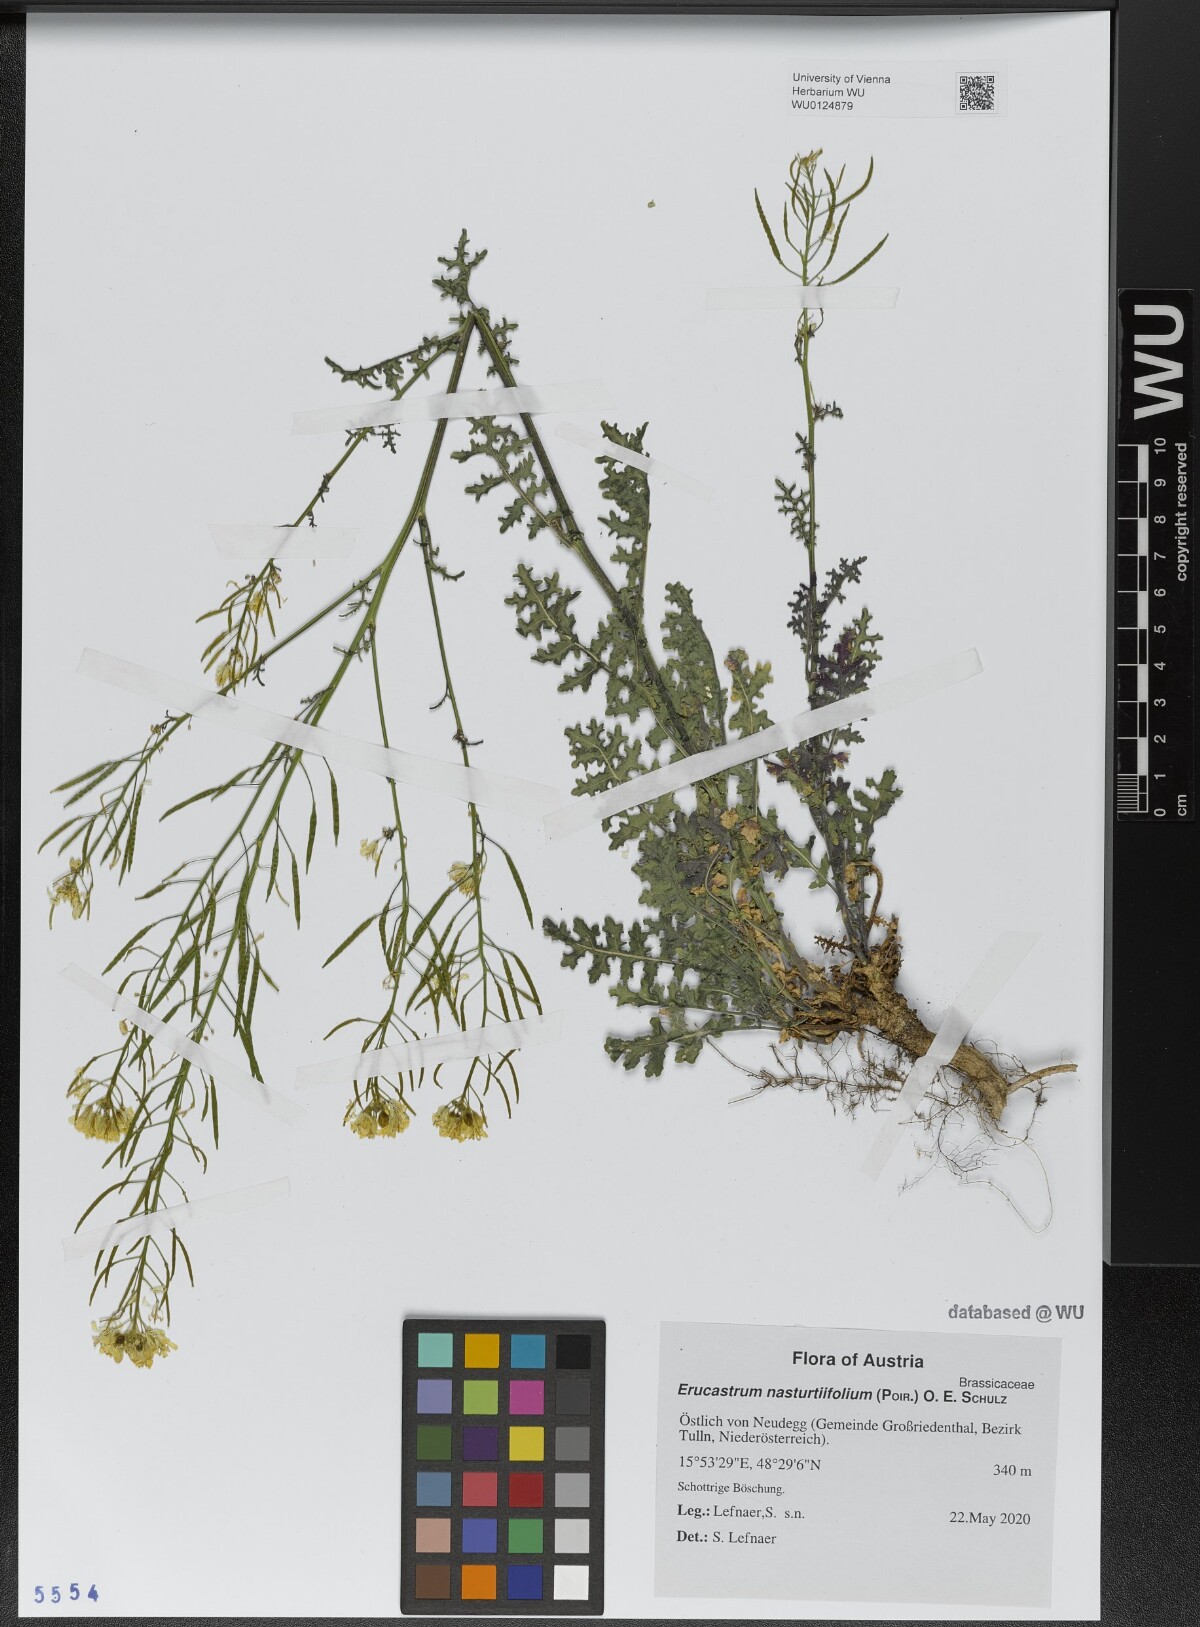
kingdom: Plantae
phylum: Tracheophyta
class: Magnoliopsida
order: Brassicales
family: Brassicaceae
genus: Erucastrum
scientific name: Erucastrum nasturtiifolium
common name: Watercress-leaf rocket
